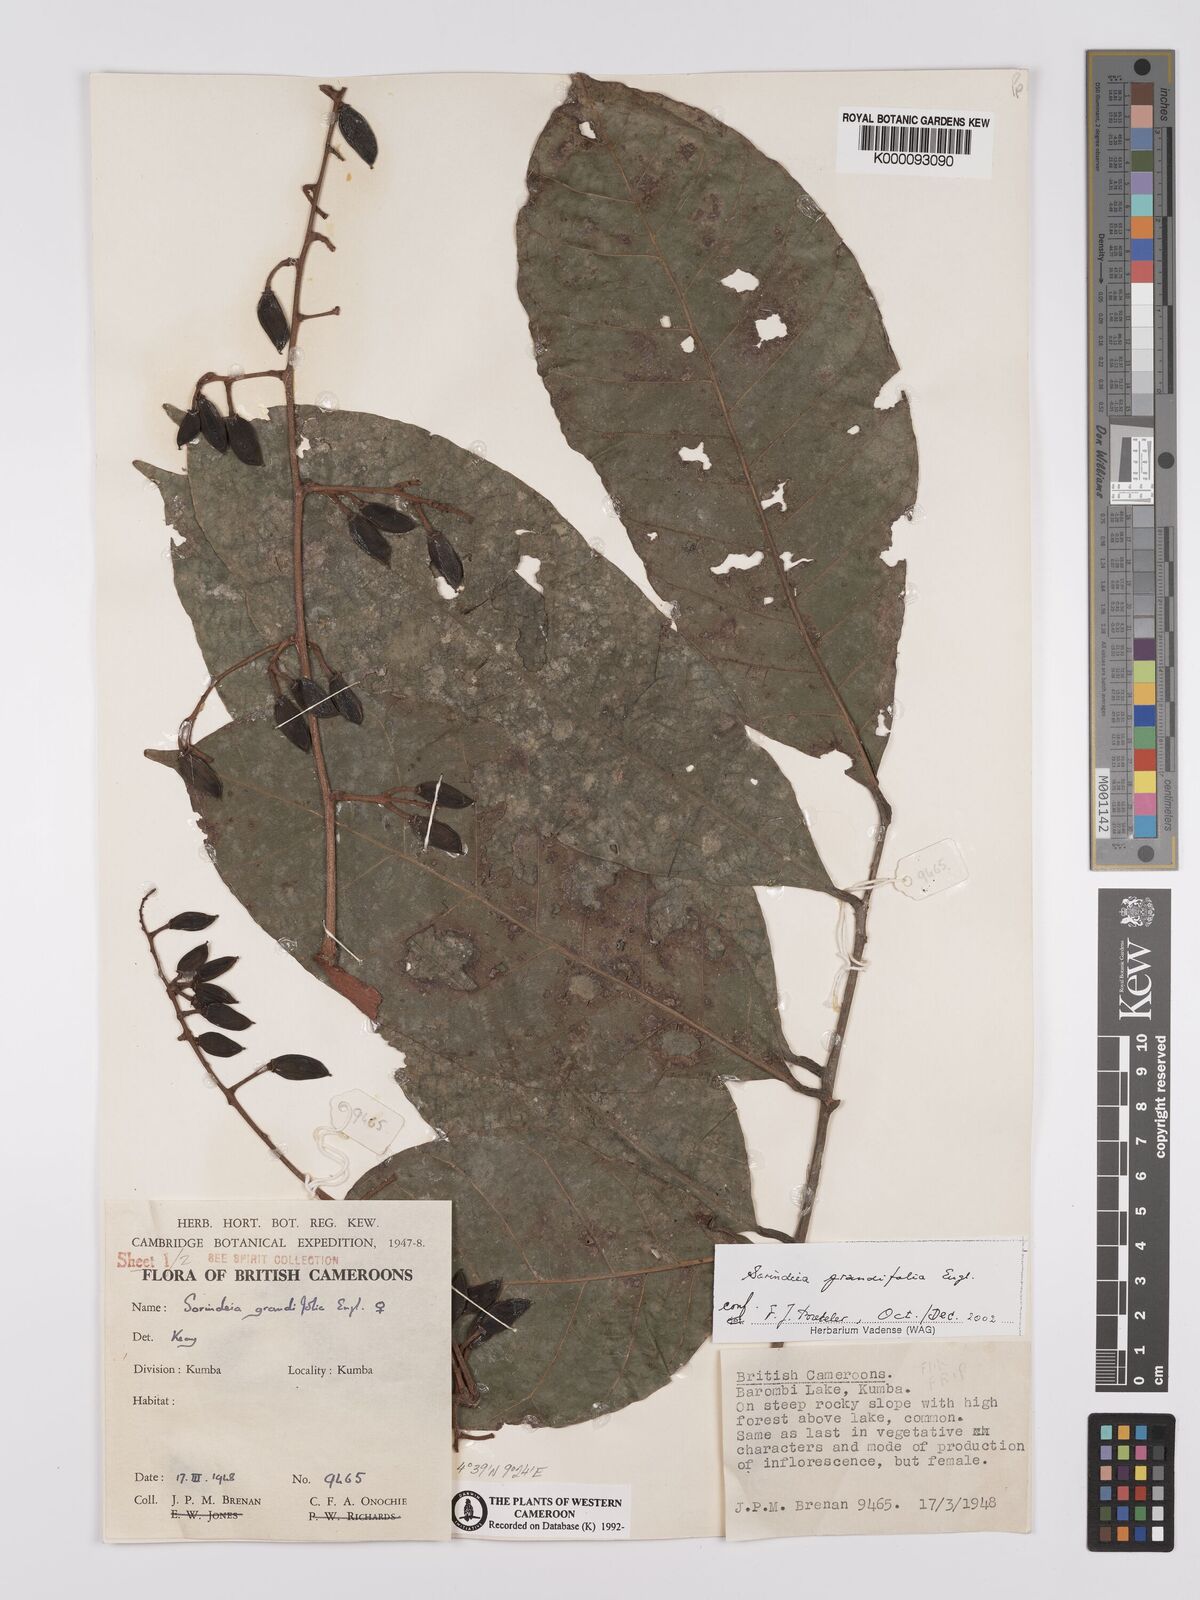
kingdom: Plantae
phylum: Tracheophyta
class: Magnoliopsida
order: Sapindales
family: Anacardiaceae
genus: Sorindeia
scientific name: Sorindeia grandifolia
